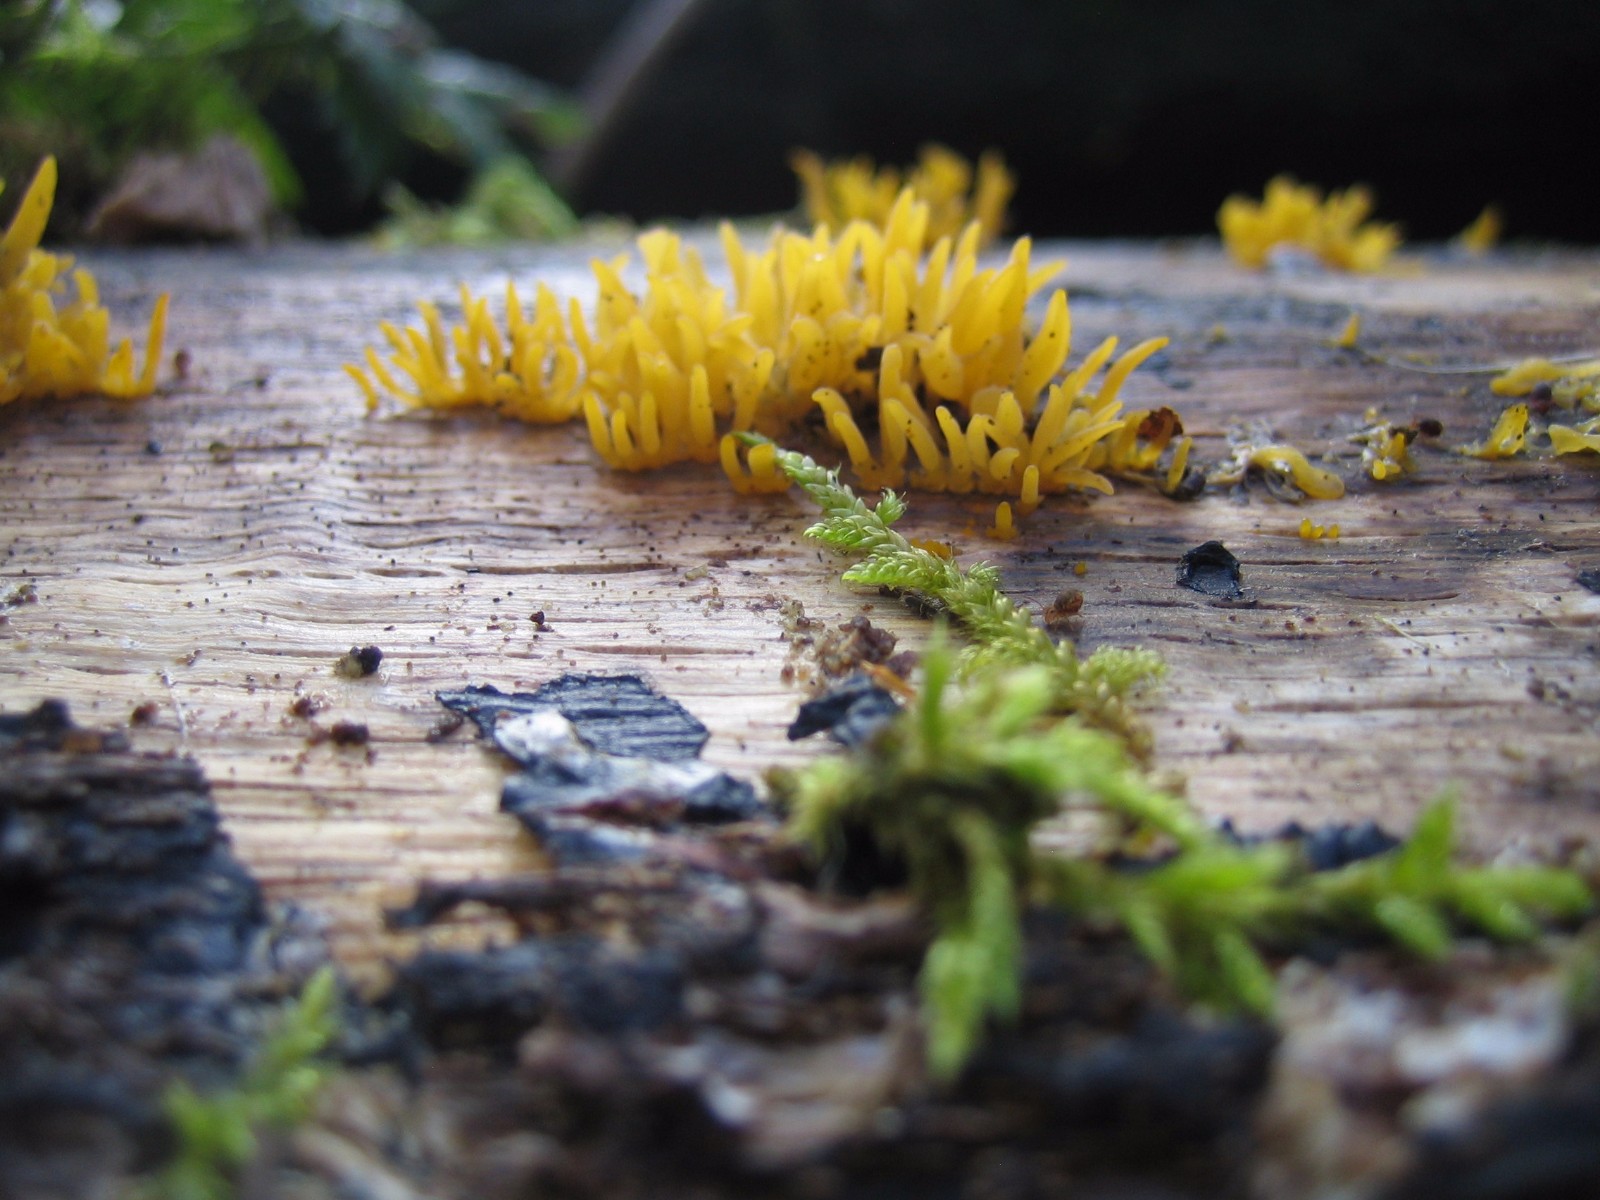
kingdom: Fungi
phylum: Basidiomycota
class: Dacrymycetes
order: Dacrymycetales
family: Dacrymycetaceae
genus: Calocera
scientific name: Calocera cornea
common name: liden guldgaffel
